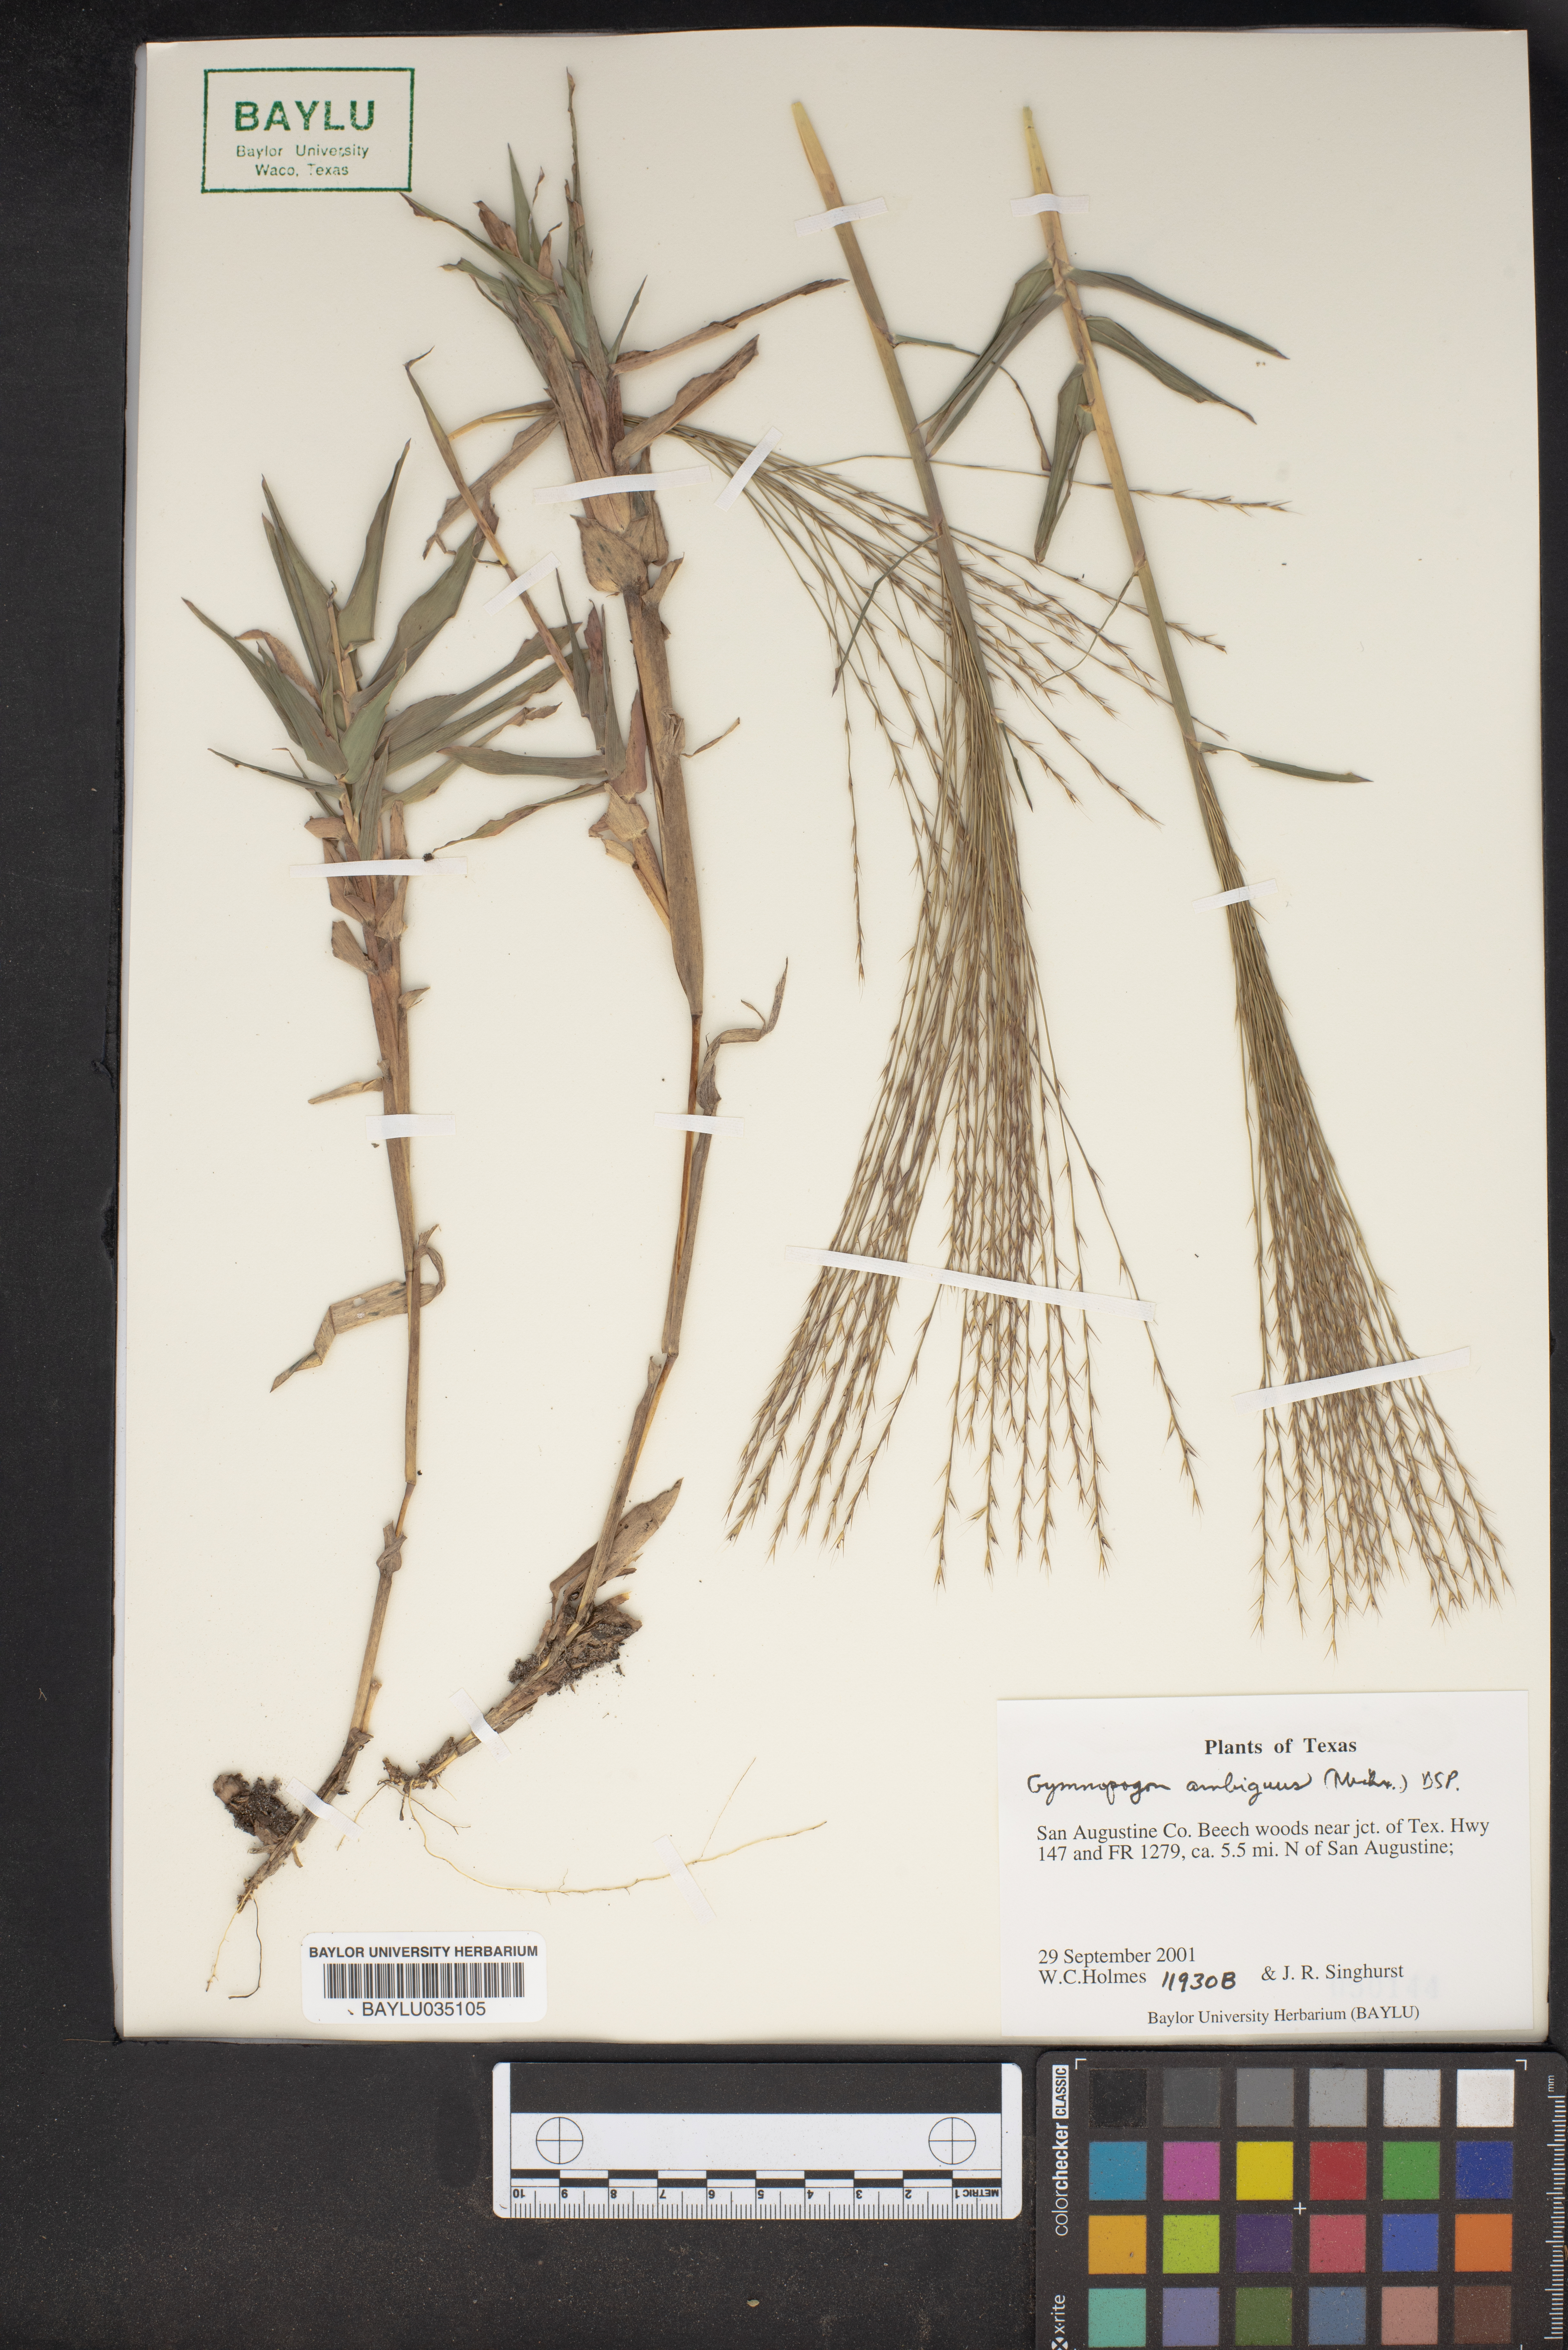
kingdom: Plantae
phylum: Tracheophyta
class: Liliopsida
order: Poales
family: Poaceae
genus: Gymnopogon
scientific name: Gymnopogon ambiguus
